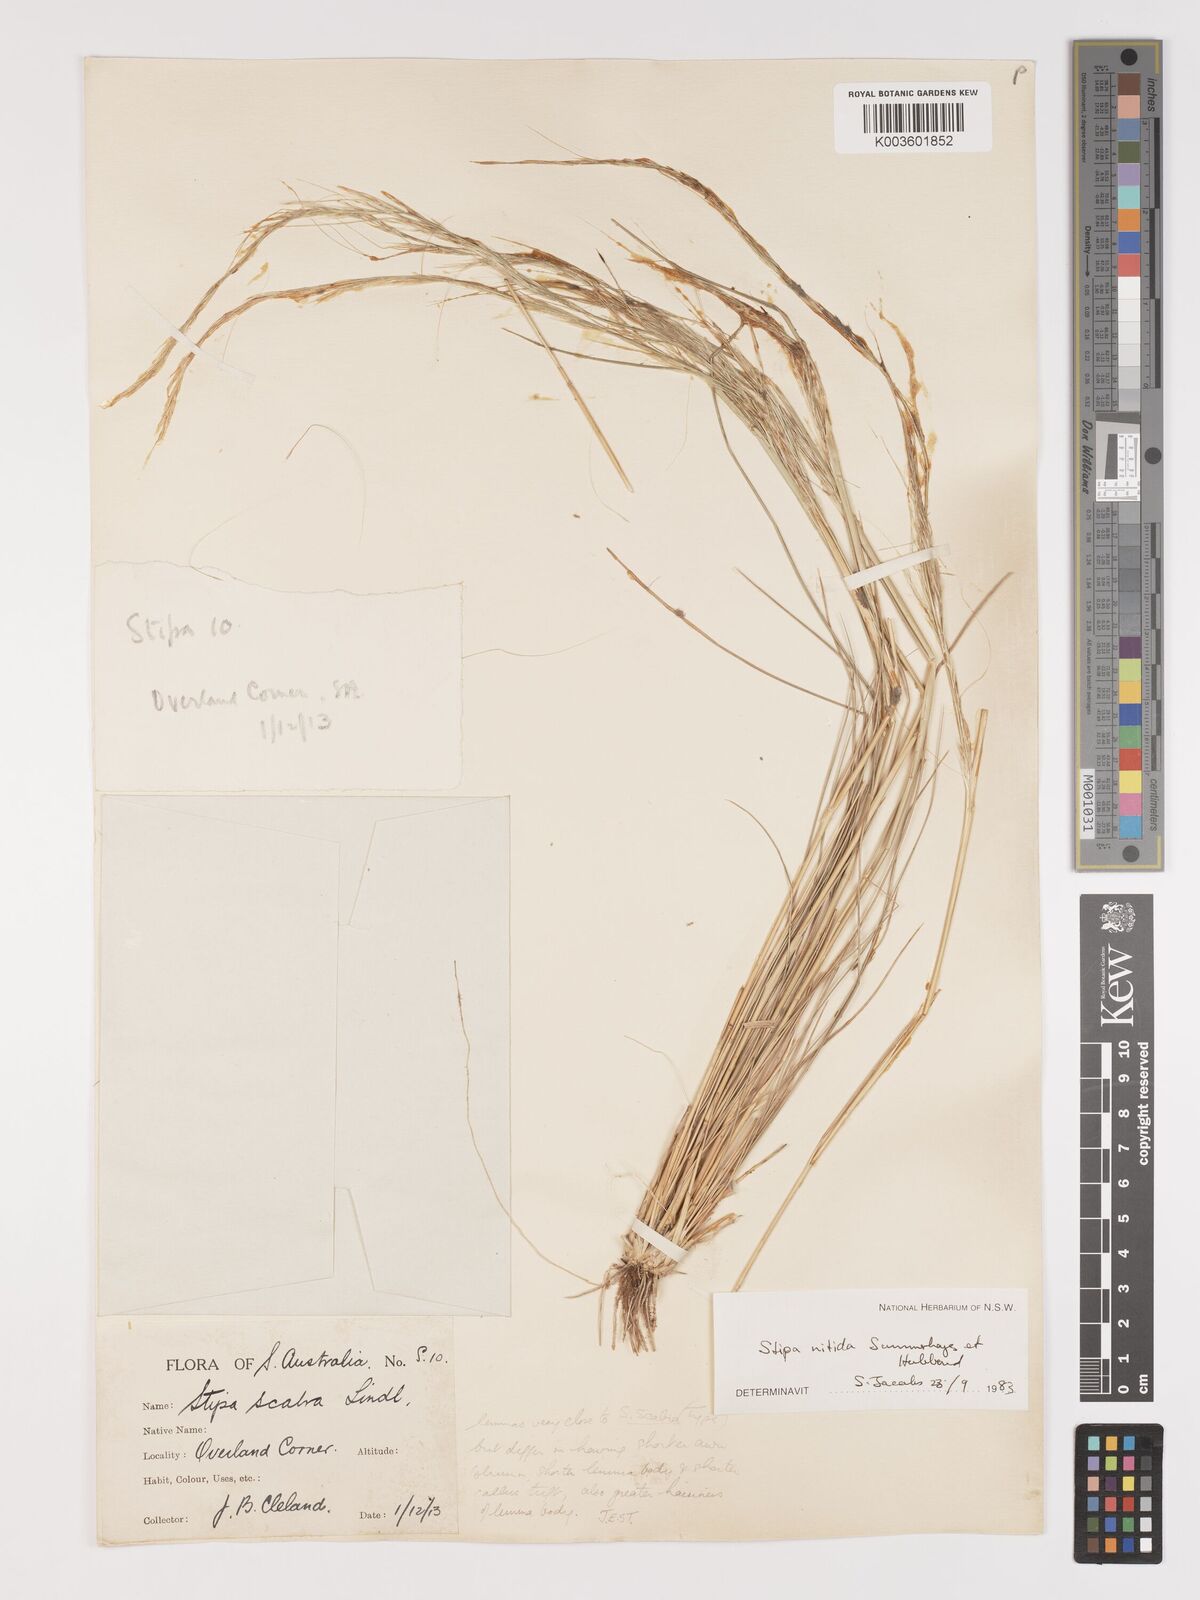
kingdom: Plantae
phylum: Tracheophyta
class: Liliopsida
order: Poales
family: Poaceae
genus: Austrostipa
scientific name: Austrostipa nitida
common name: Balcarra grass
